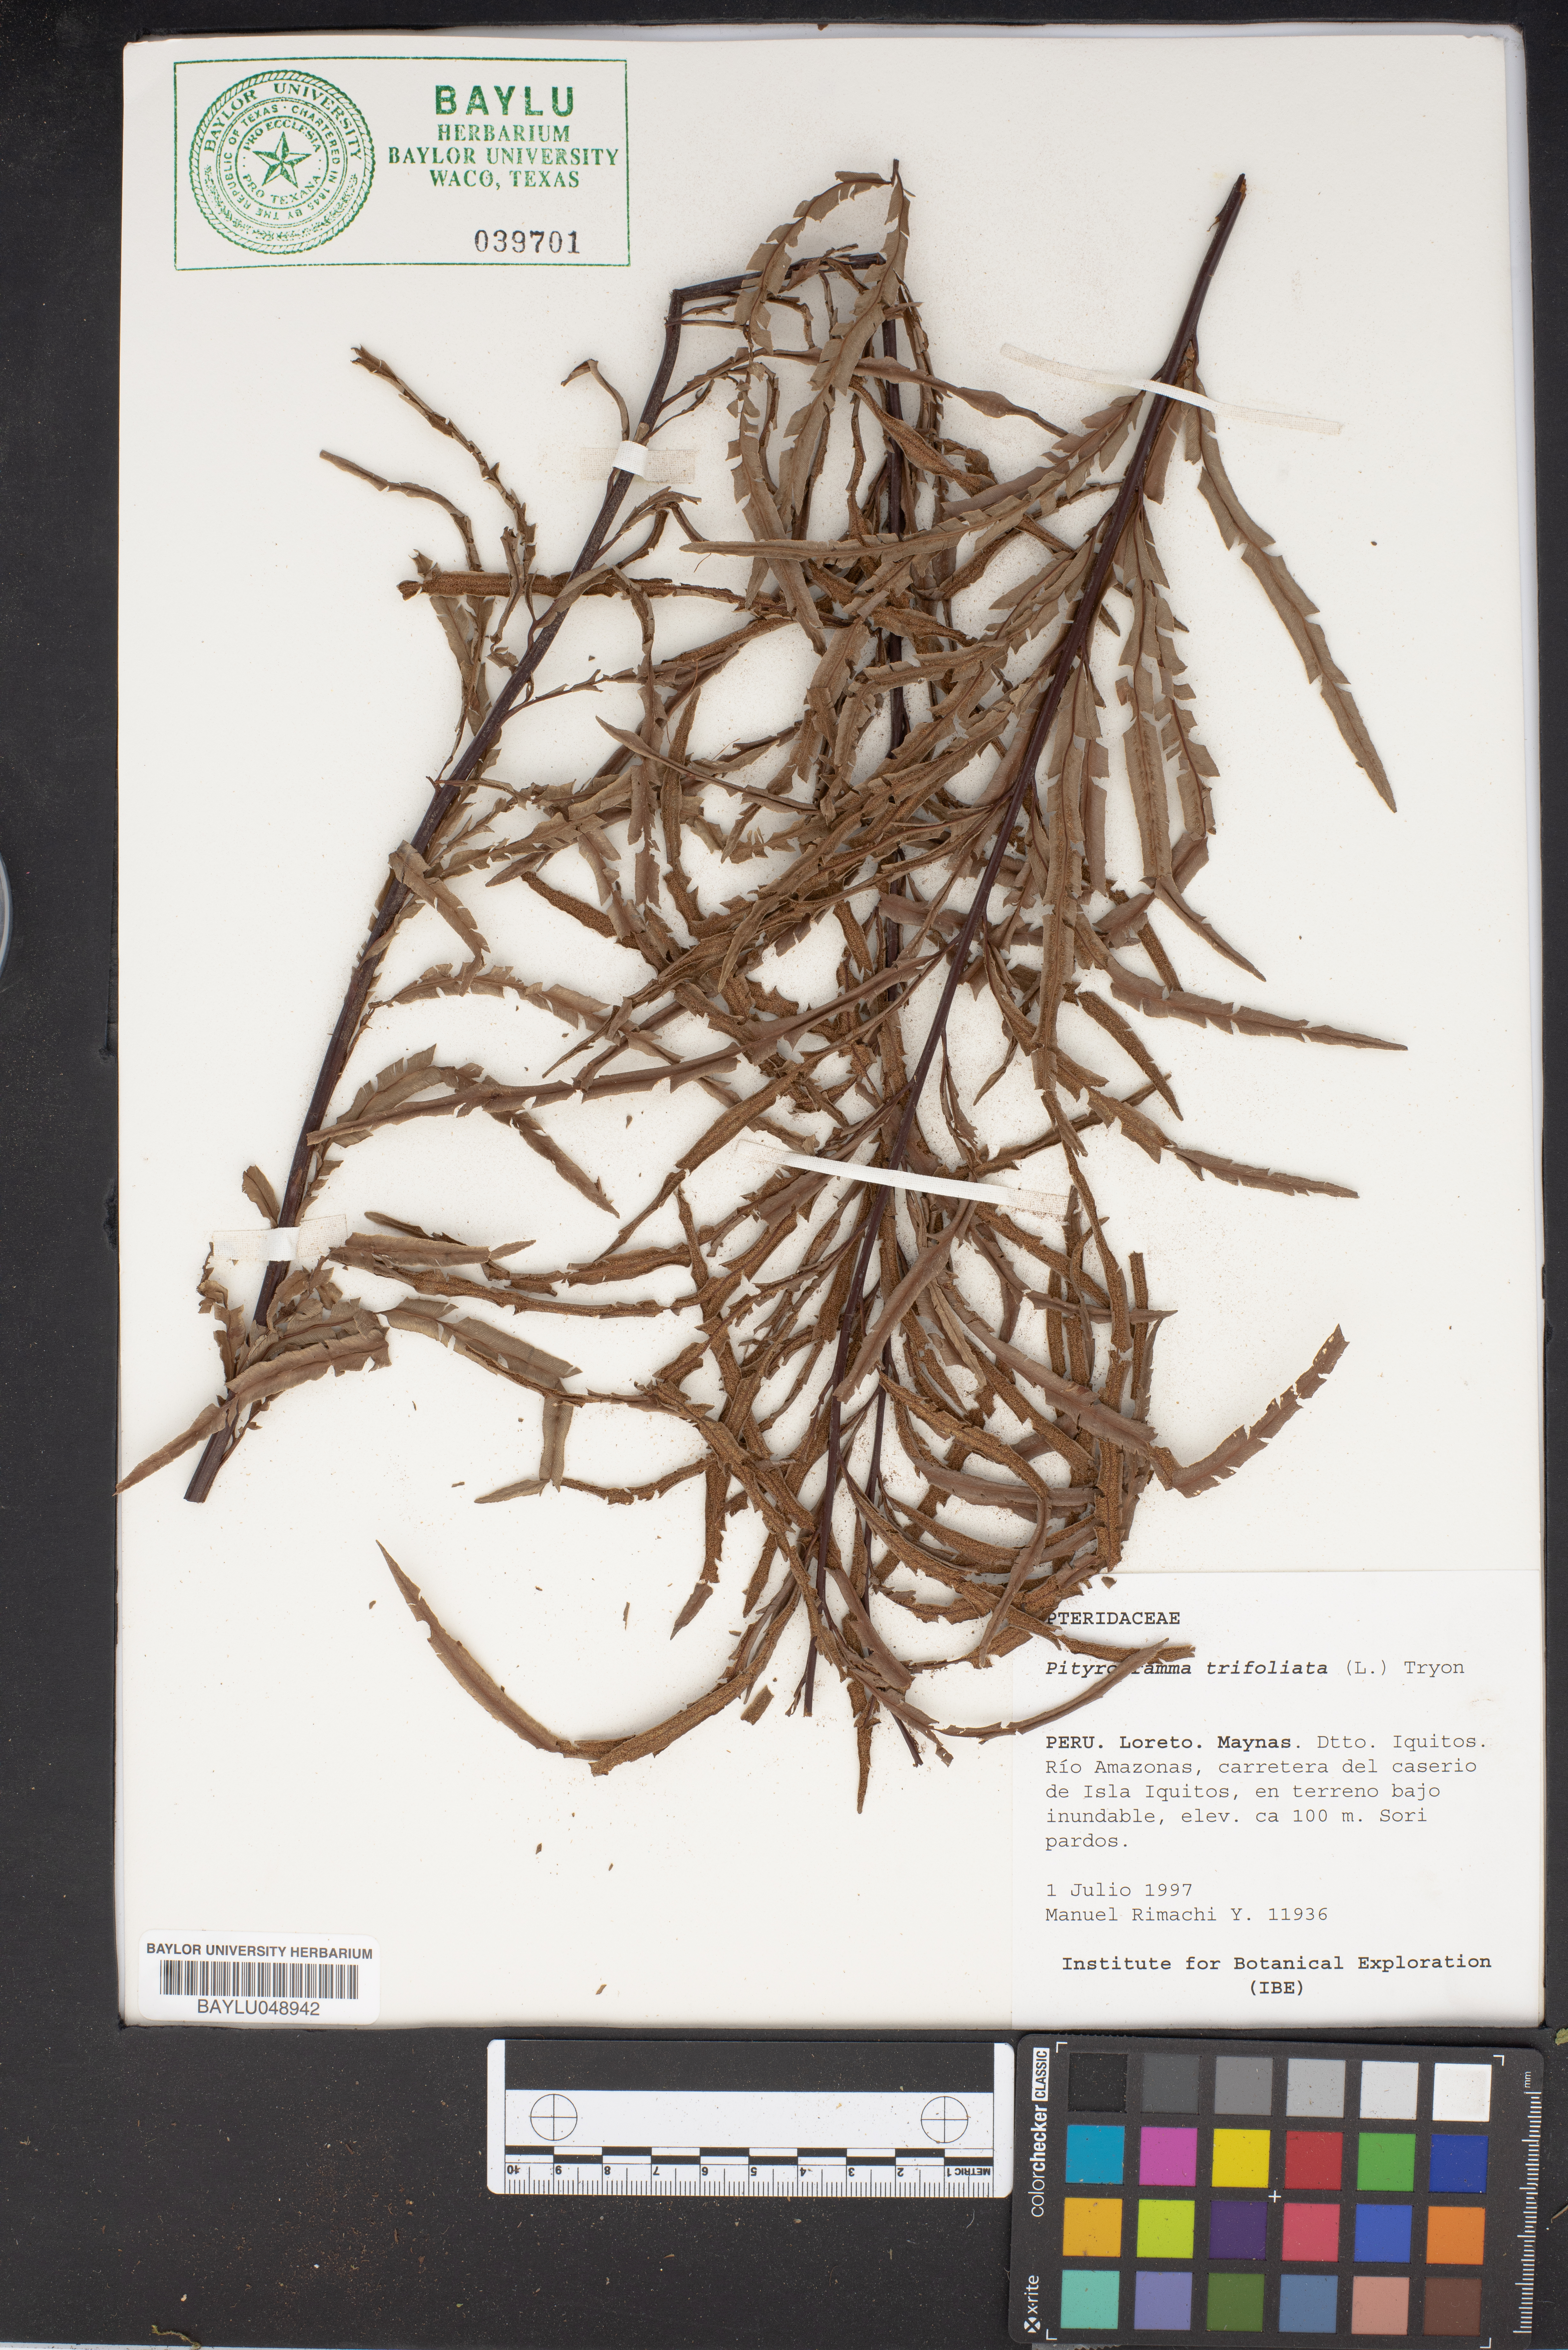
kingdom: Plantae
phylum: Tracheophyta
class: Polypodiopsida
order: Polypodiales
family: Pteridaceae
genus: Pityrogramma
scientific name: Pityrogramma trifoliata
